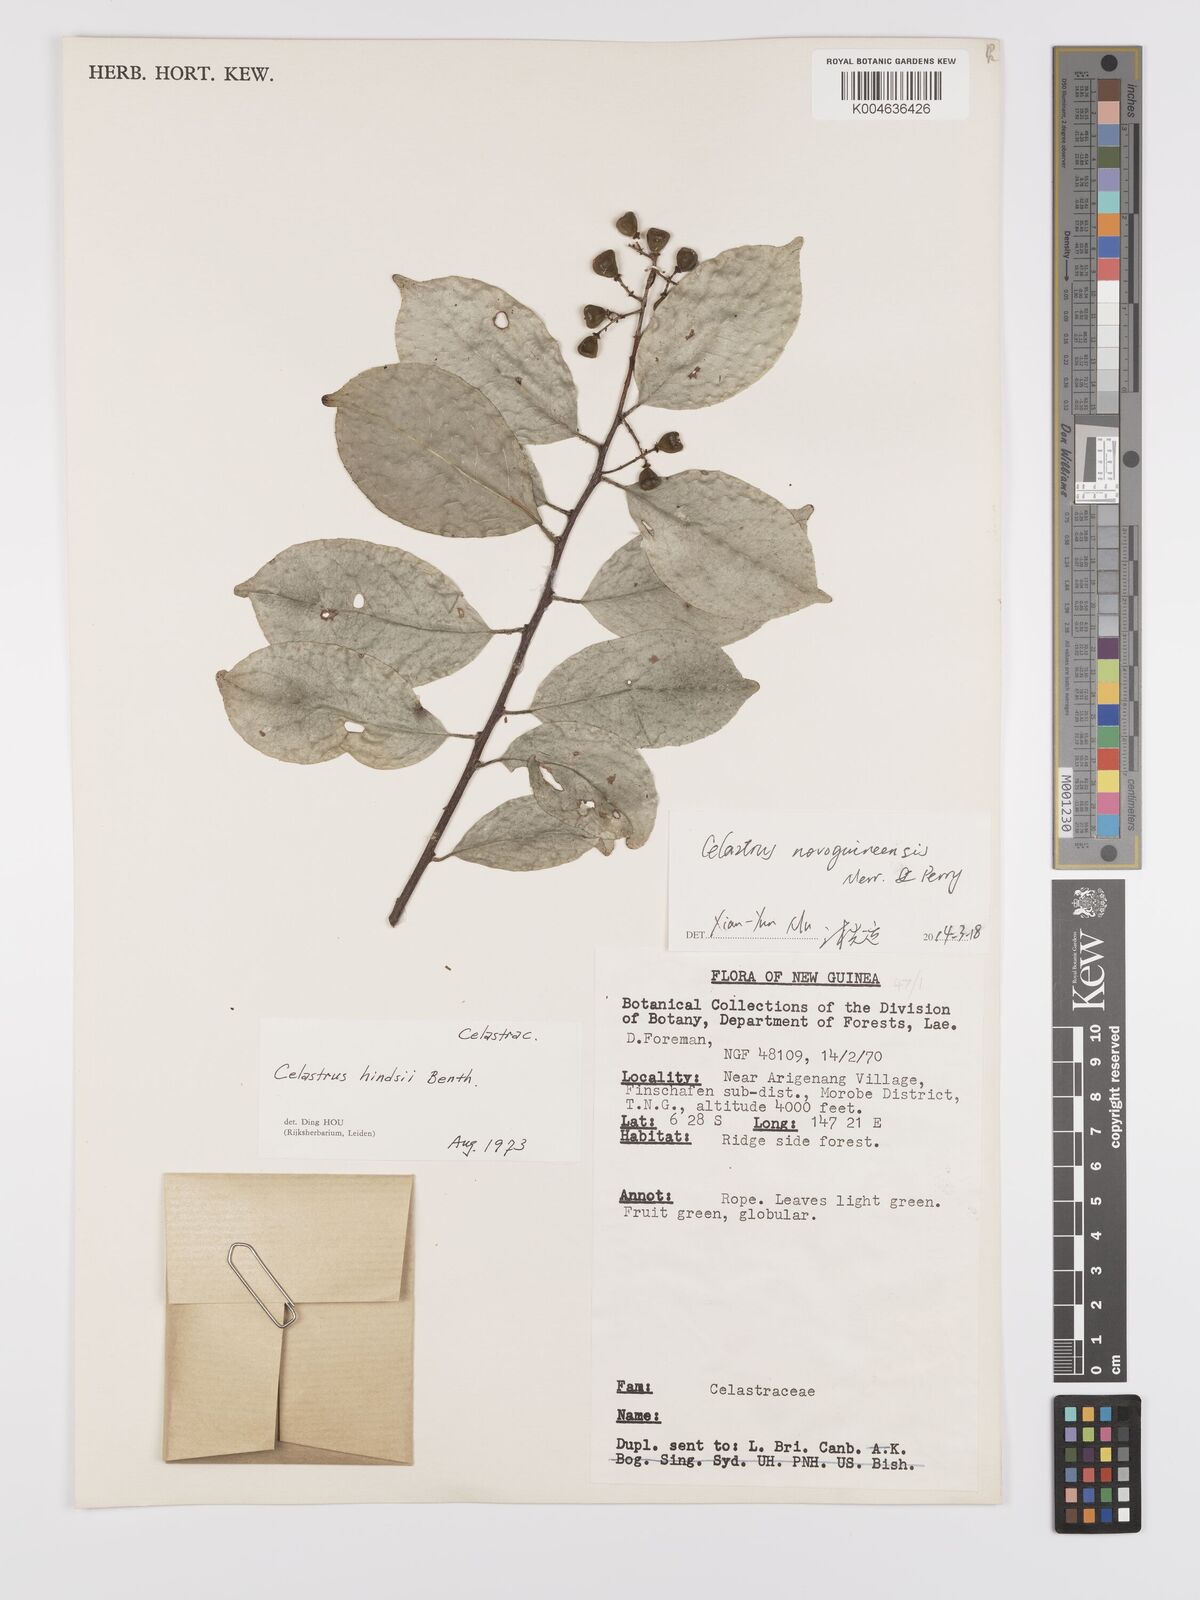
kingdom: Plantae
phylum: Tracheophyta
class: Magnoliopsida
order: Celastrales
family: Celastraceae
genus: Celastrus
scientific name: Celastrus novoguineensis
